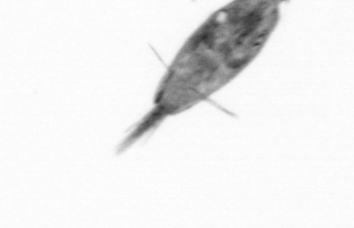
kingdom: Animalia
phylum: Arthropoda
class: Maxillopoda
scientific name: Maxillopoda
